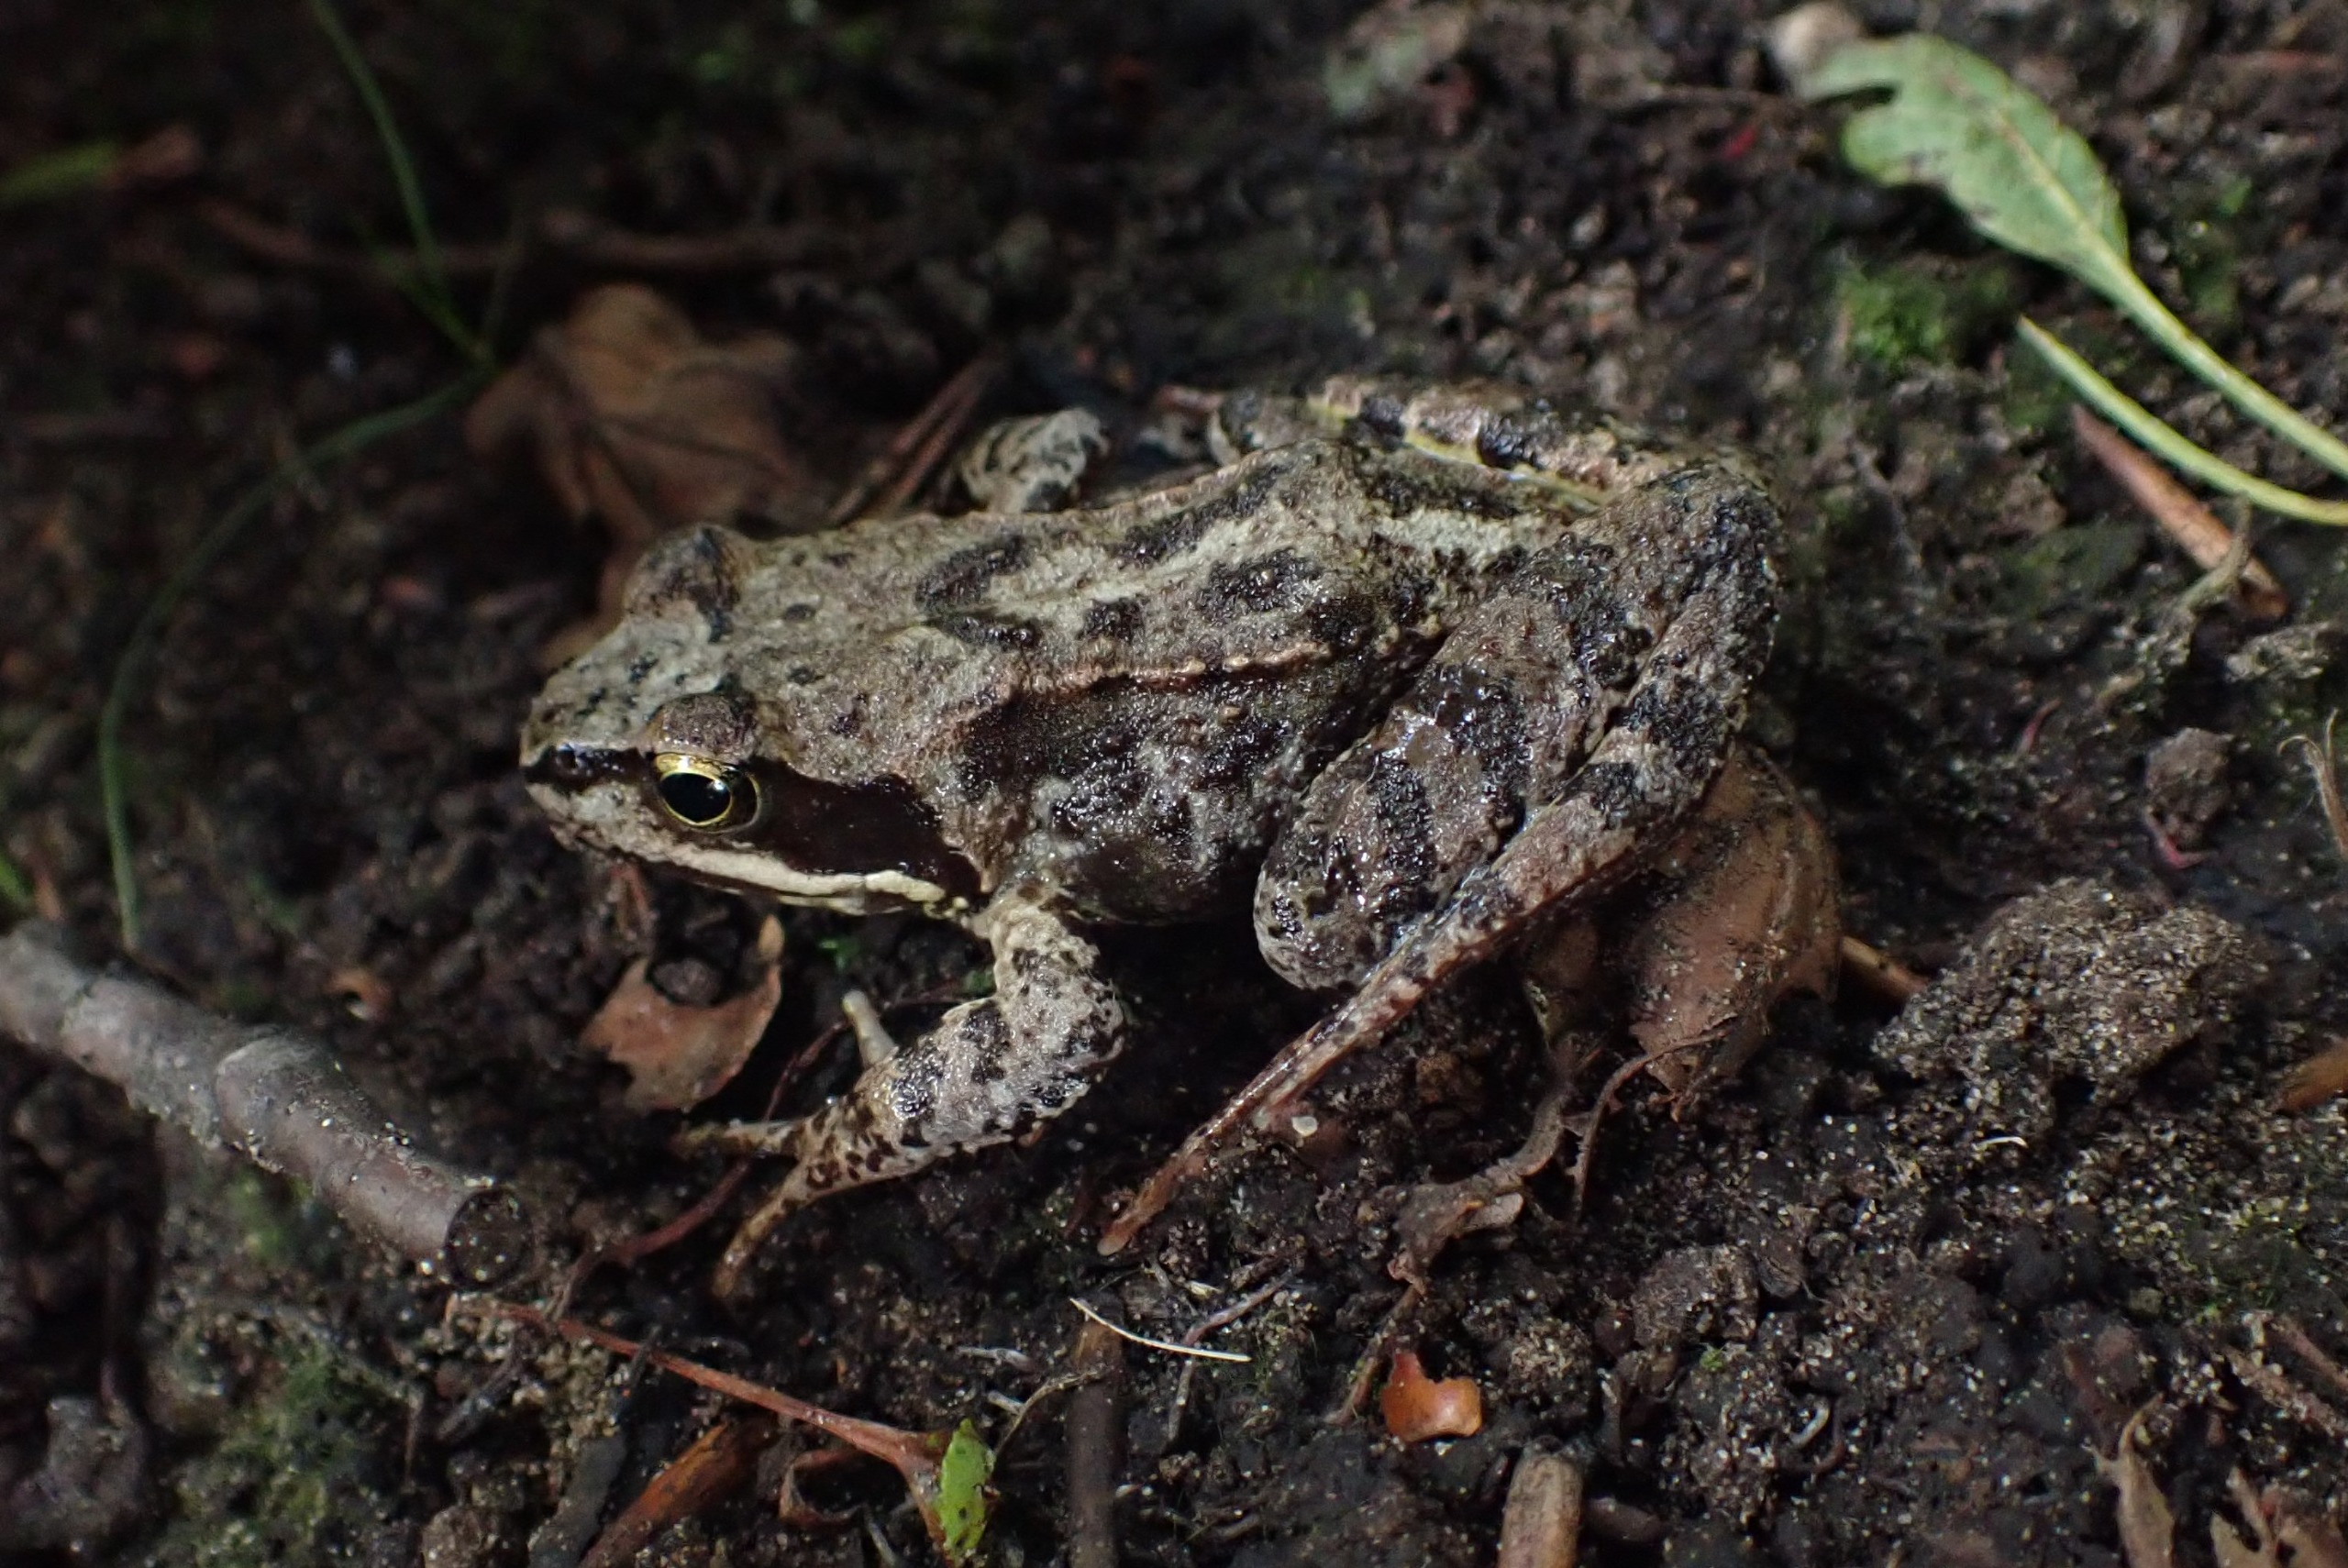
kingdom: Animalia
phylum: Chordata
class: Amphibia
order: Anura
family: Ranidae
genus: Rana
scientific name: Rana temporaria
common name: Butsnudet frø
